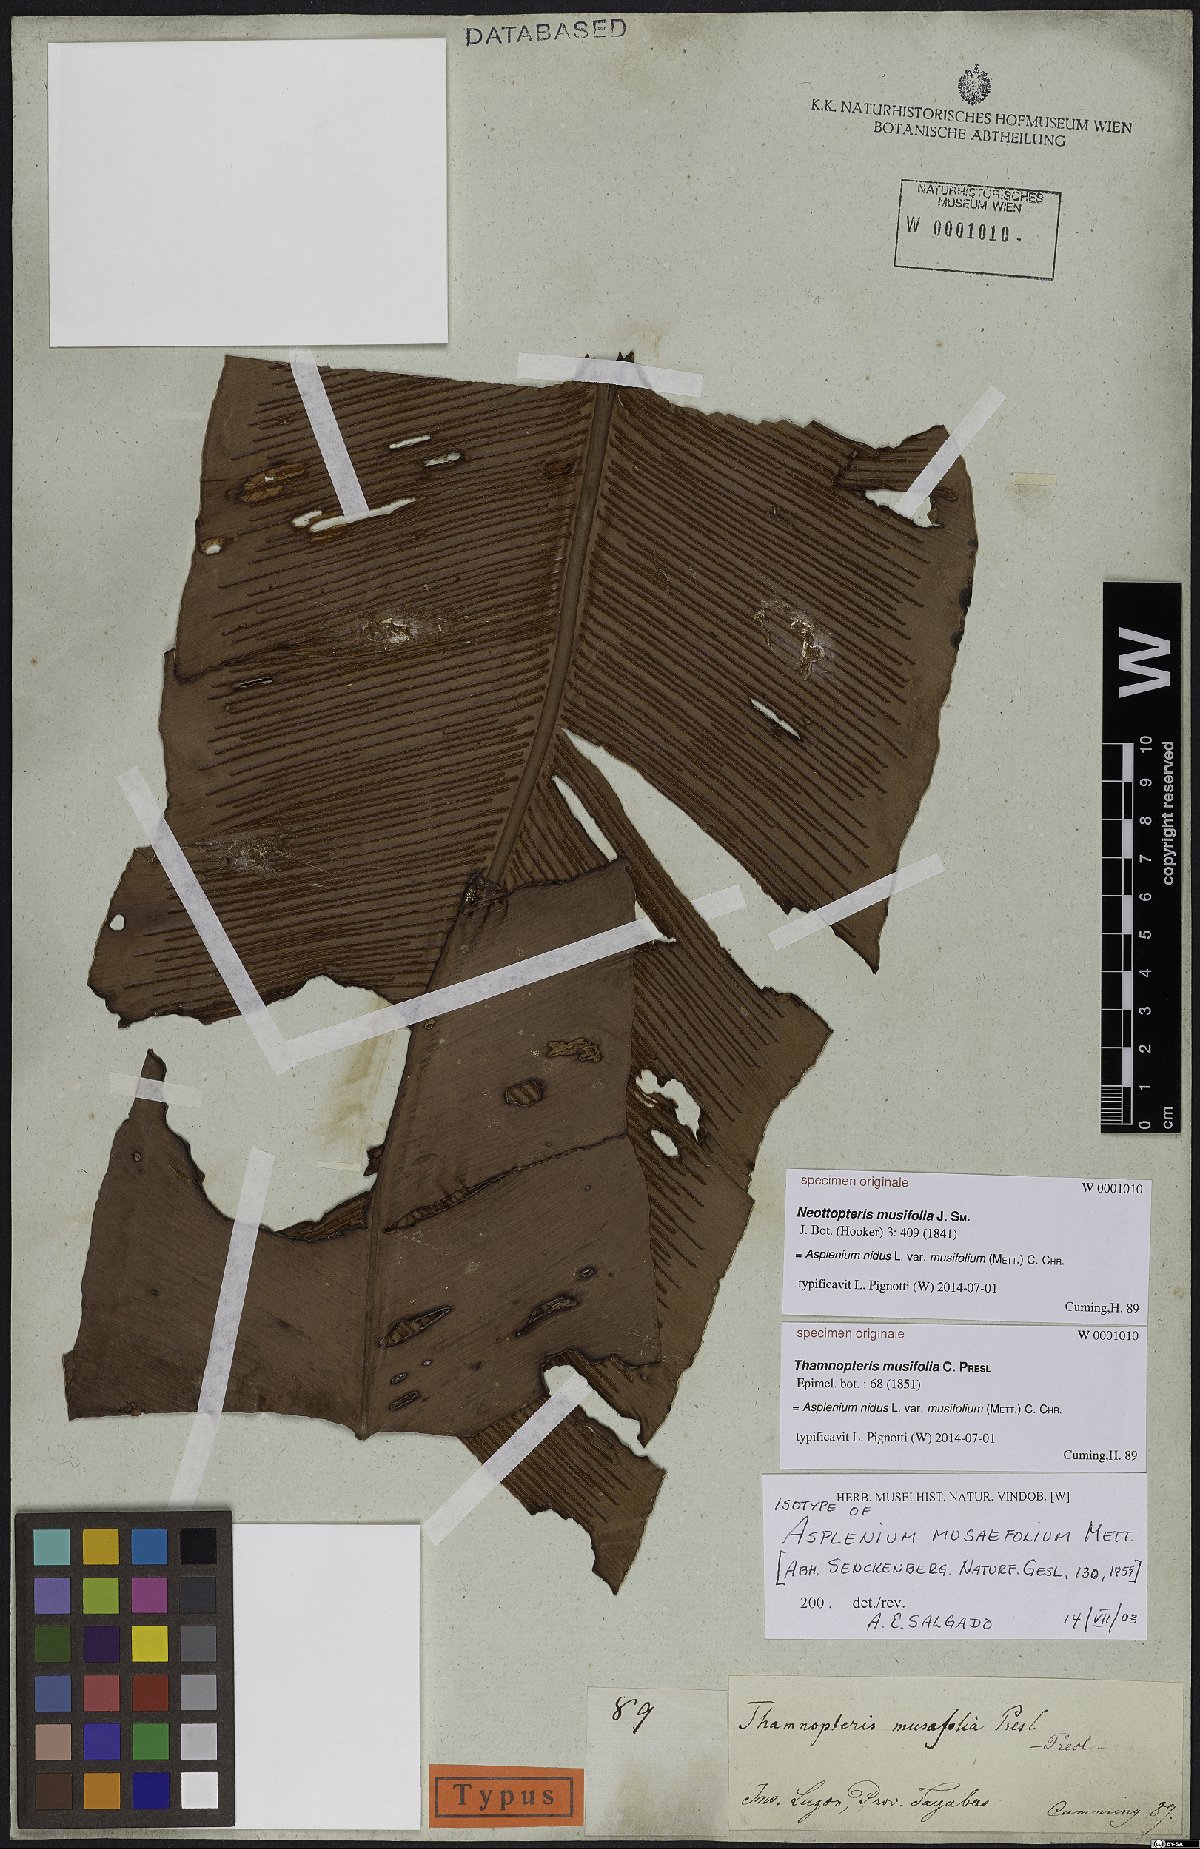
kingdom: Plantae
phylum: Tracheophyta
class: Polypodiopsida
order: Polypodiales
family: Aspleniaceae
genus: Asplenium
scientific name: Asplenium musifolium
